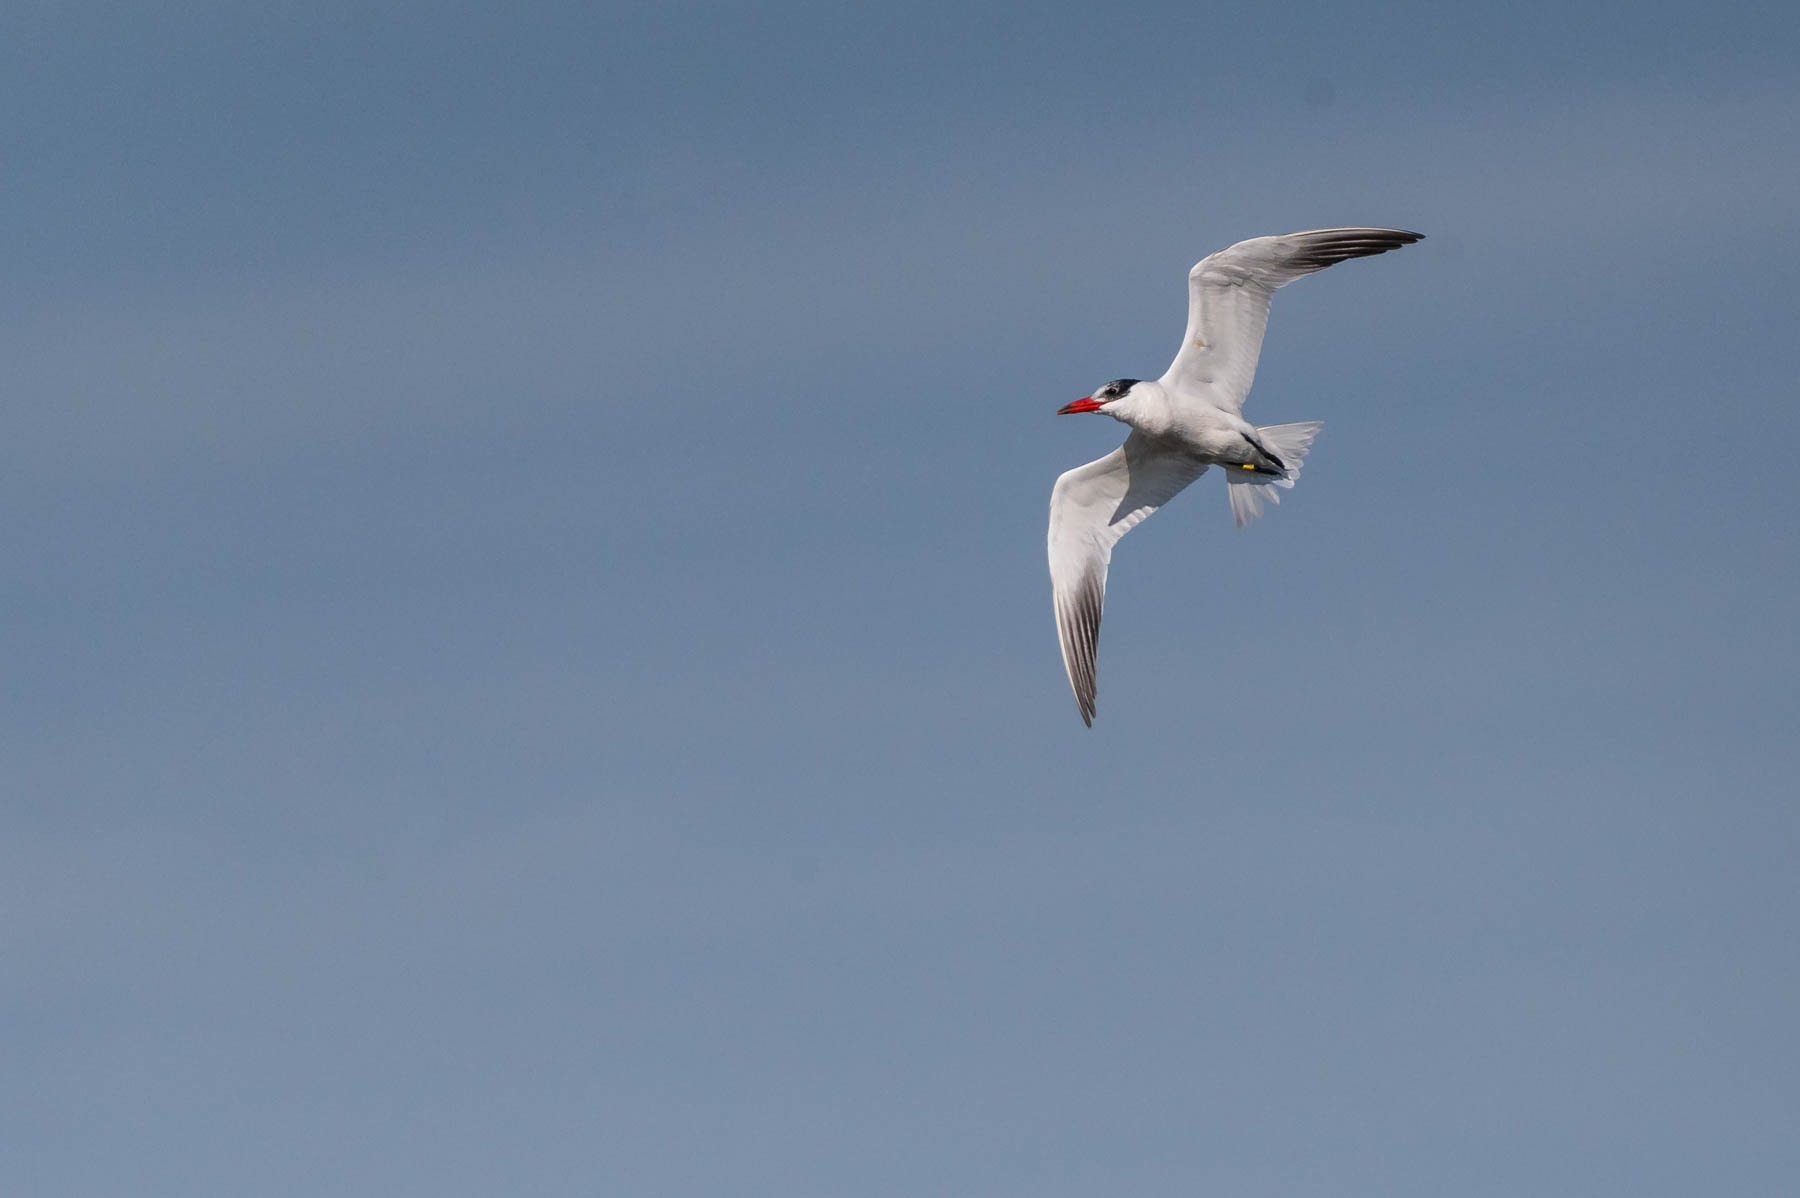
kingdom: Animalia
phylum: Chordata
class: Aves
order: Charadriiformes
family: Laridae
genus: Hydroprogne
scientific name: Hydroprogne caspia
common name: Rovterne
